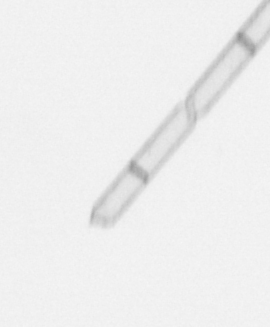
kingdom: Chromista
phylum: Ochrophyta
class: Bacillariophyceae
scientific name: Bacillariophyceae
